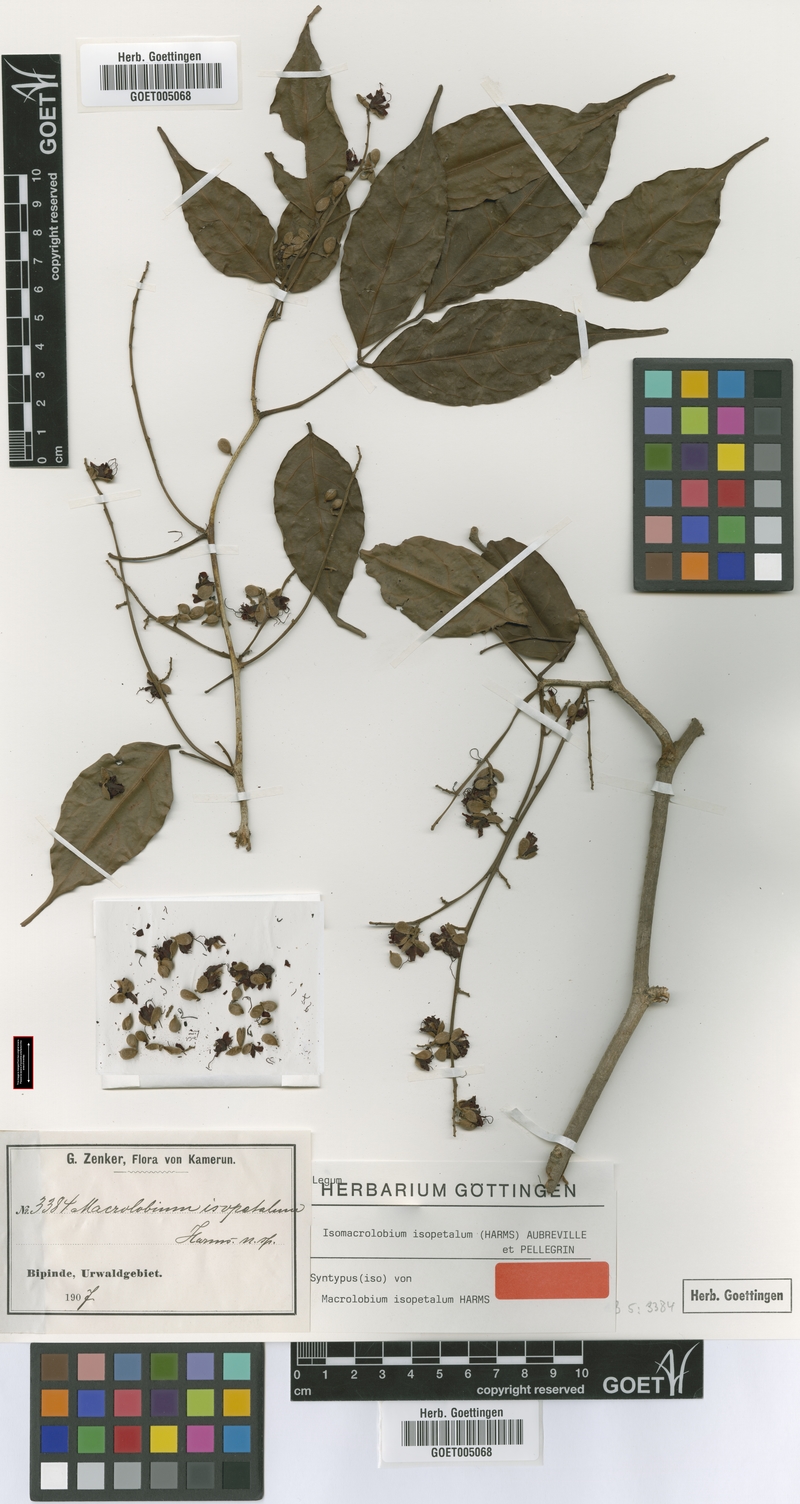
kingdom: Plantae
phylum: Tracheophyta
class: Magnoliopsida
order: Fabales
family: Fabaceae
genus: Englerodendron
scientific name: Englerodendron isopetalum
